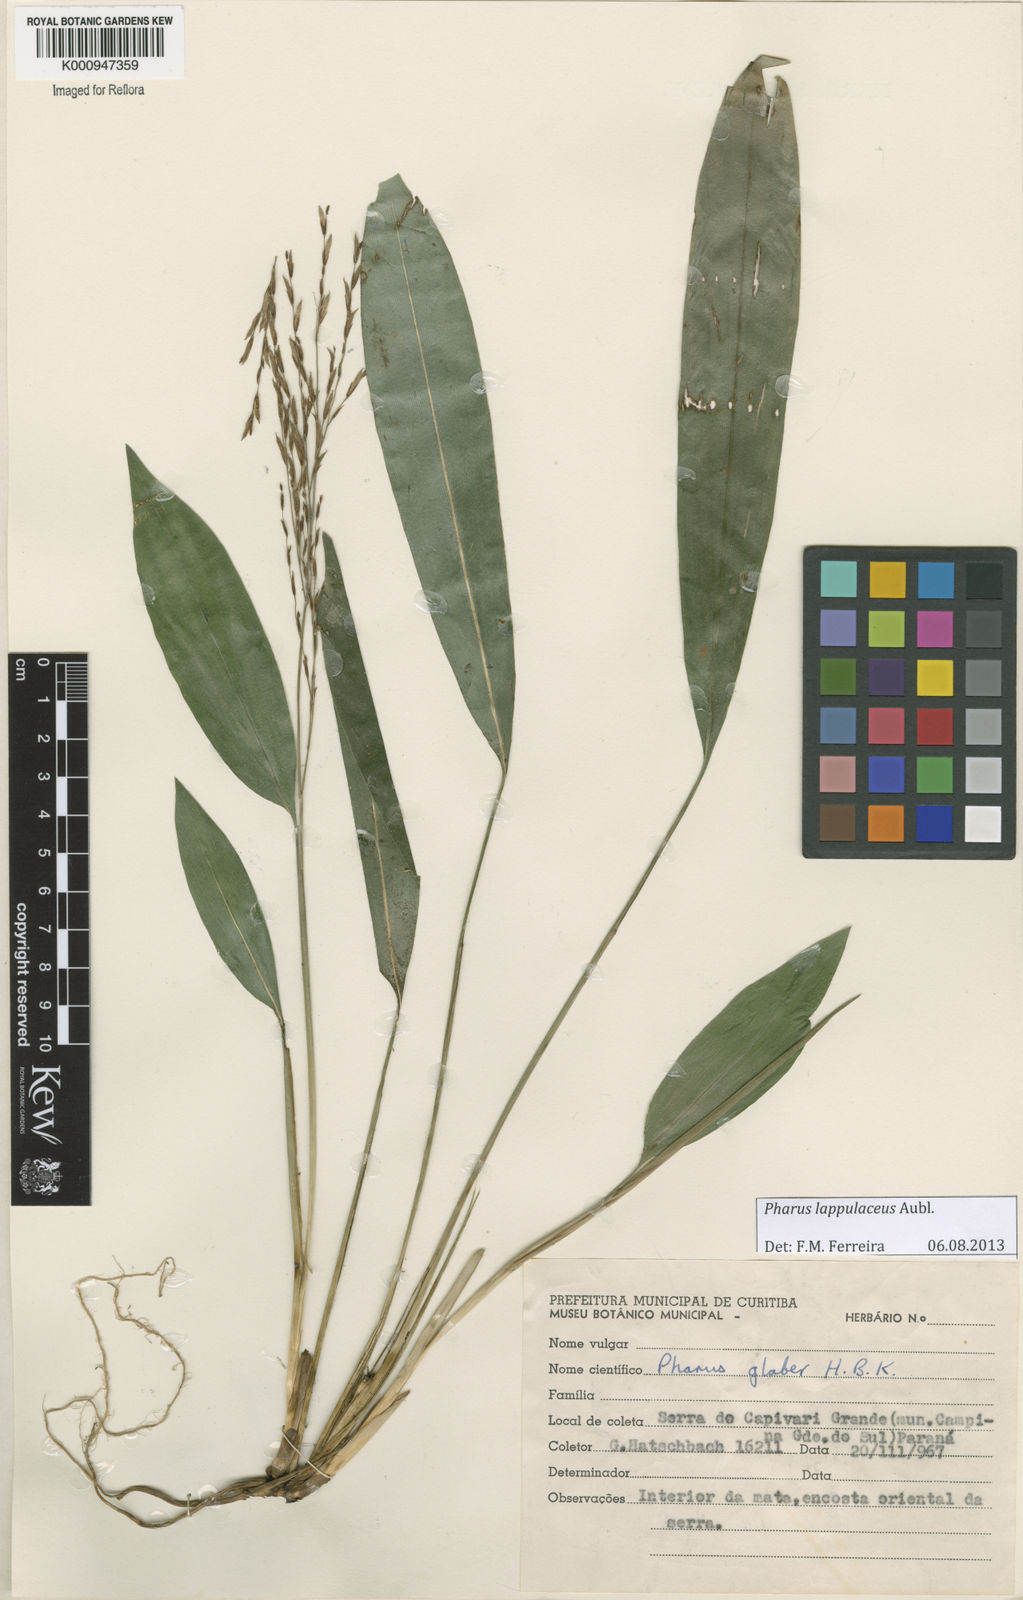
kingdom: Plantae
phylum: Tracheophyta
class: Liliopsida
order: Poales
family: Poaceae
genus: Pharus
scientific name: Pharus lappulaceus
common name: Creeping leafstalk grass
